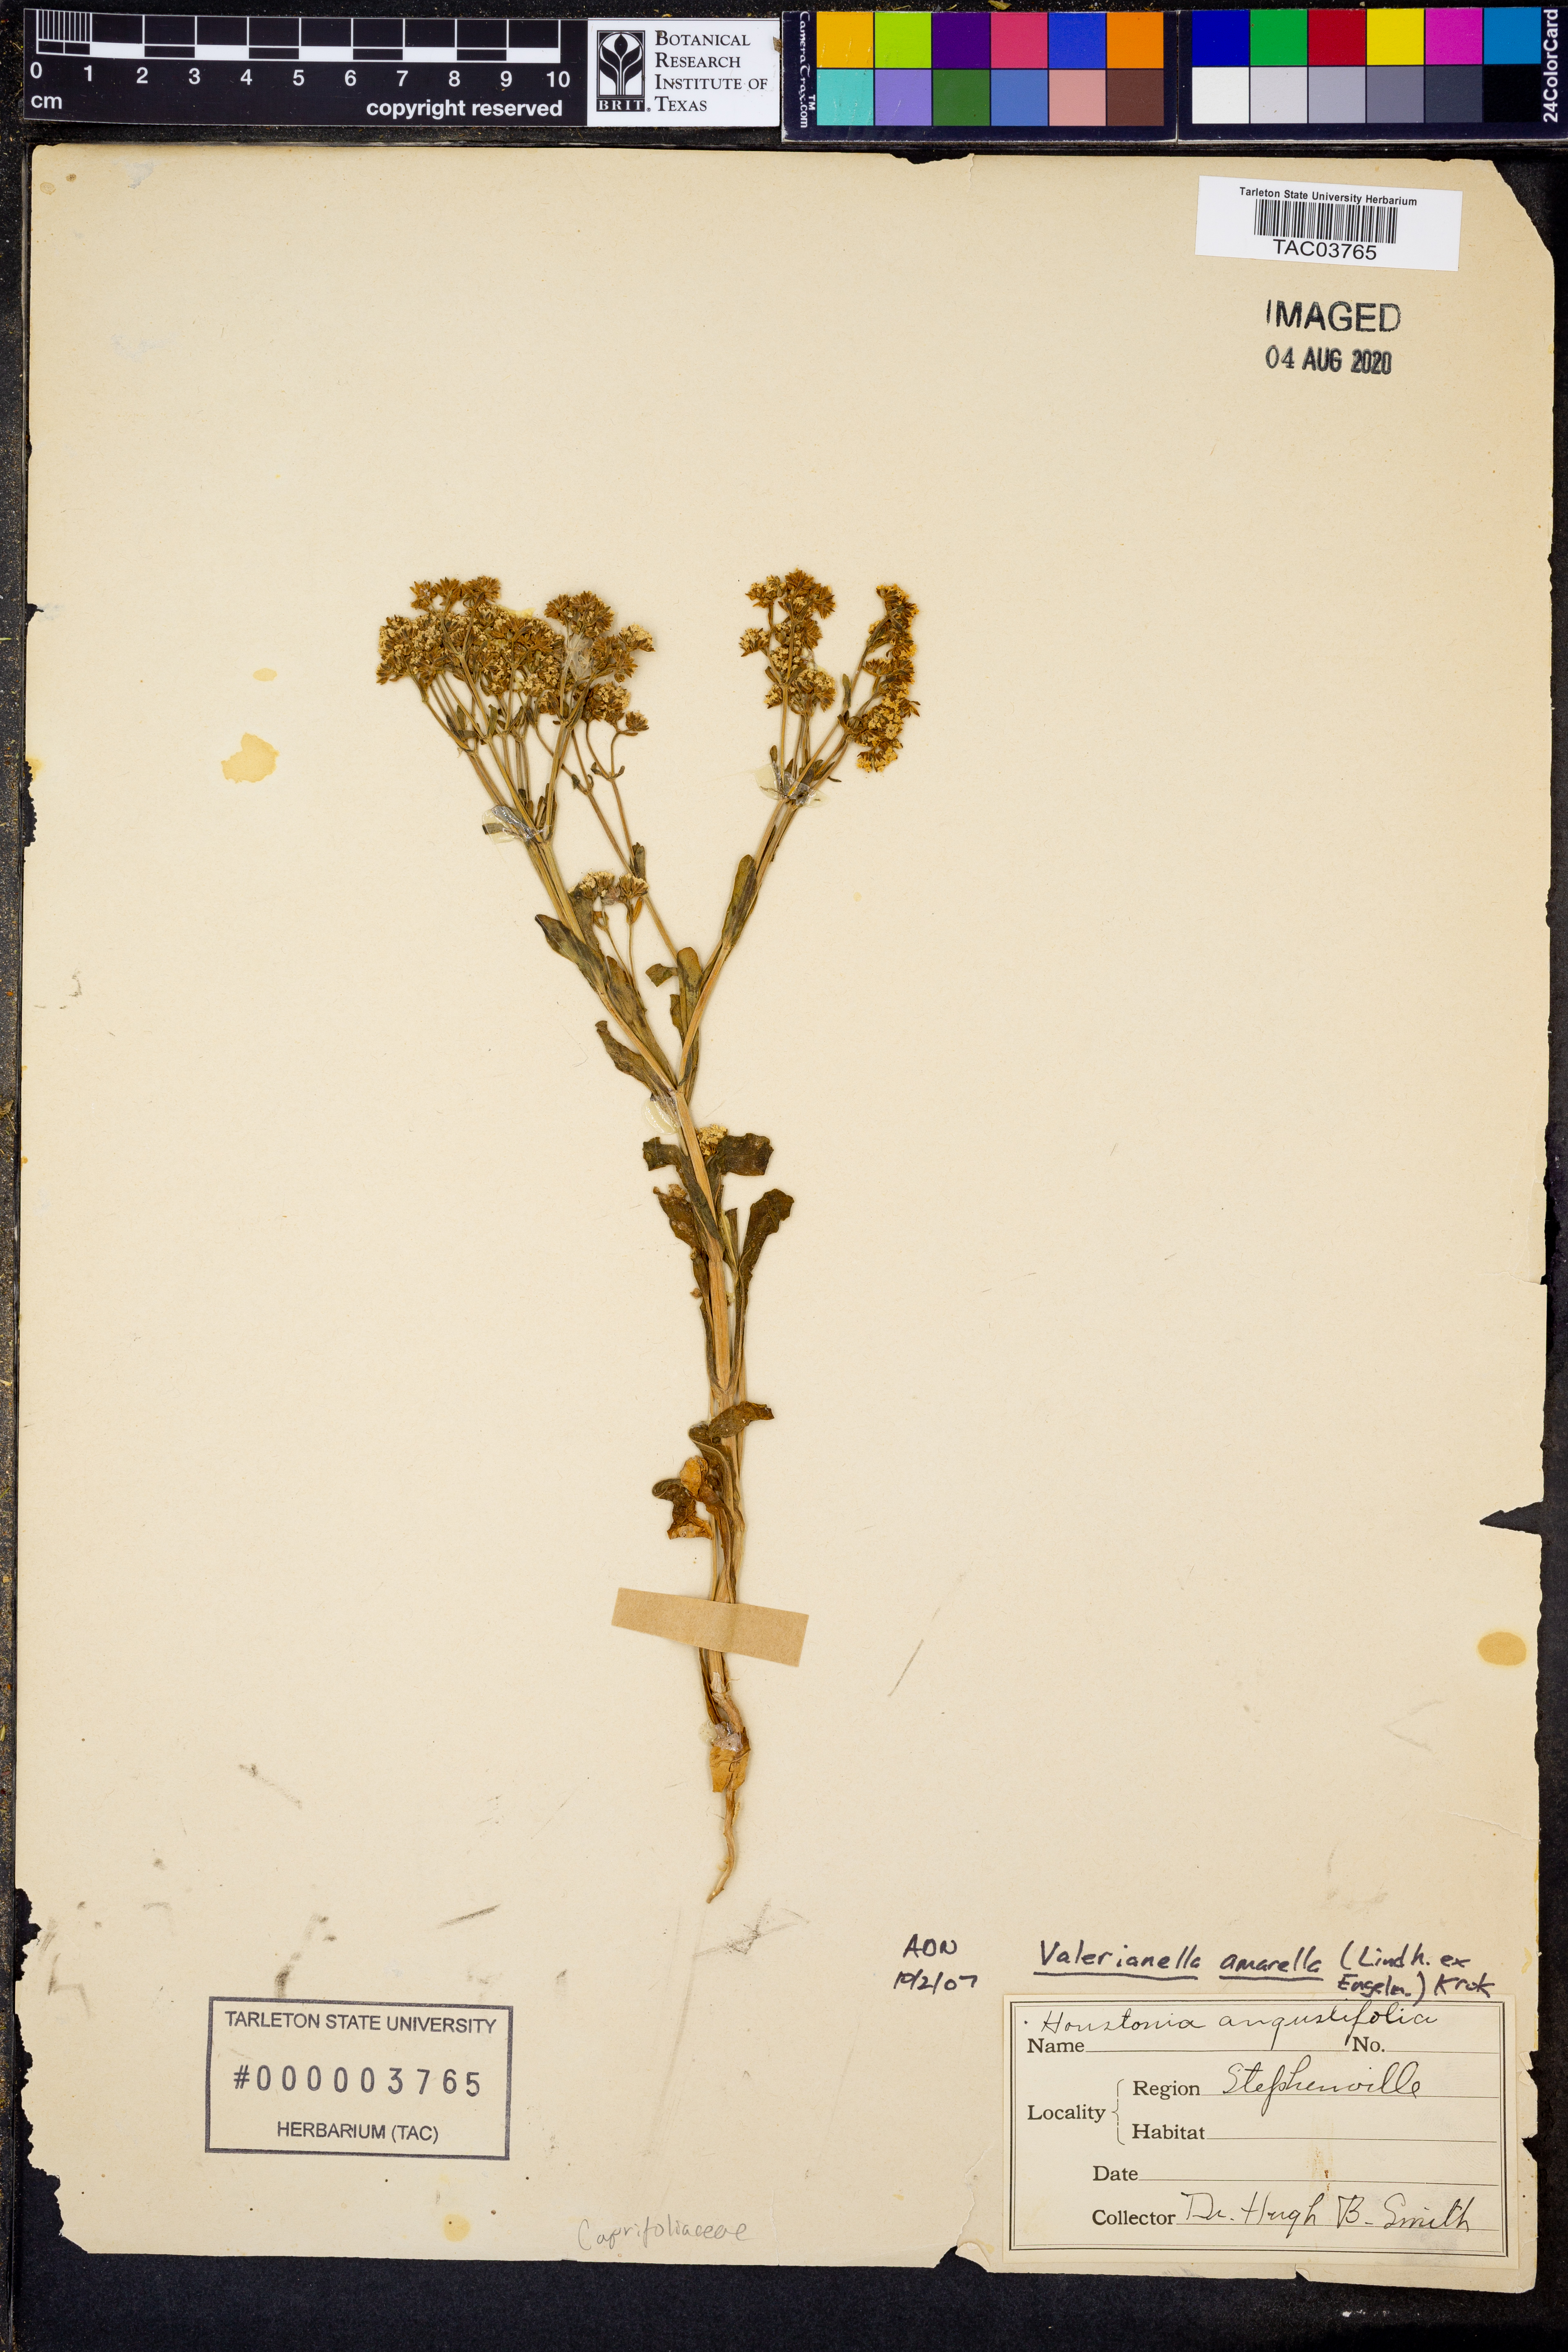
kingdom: Plantae
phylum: Tracheophyta
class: Magnoliopsida
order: Dipsacales
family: Caprifoliaceae
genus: Valerianella
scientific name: Valerianella amarella
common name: Hariy cornsalad
